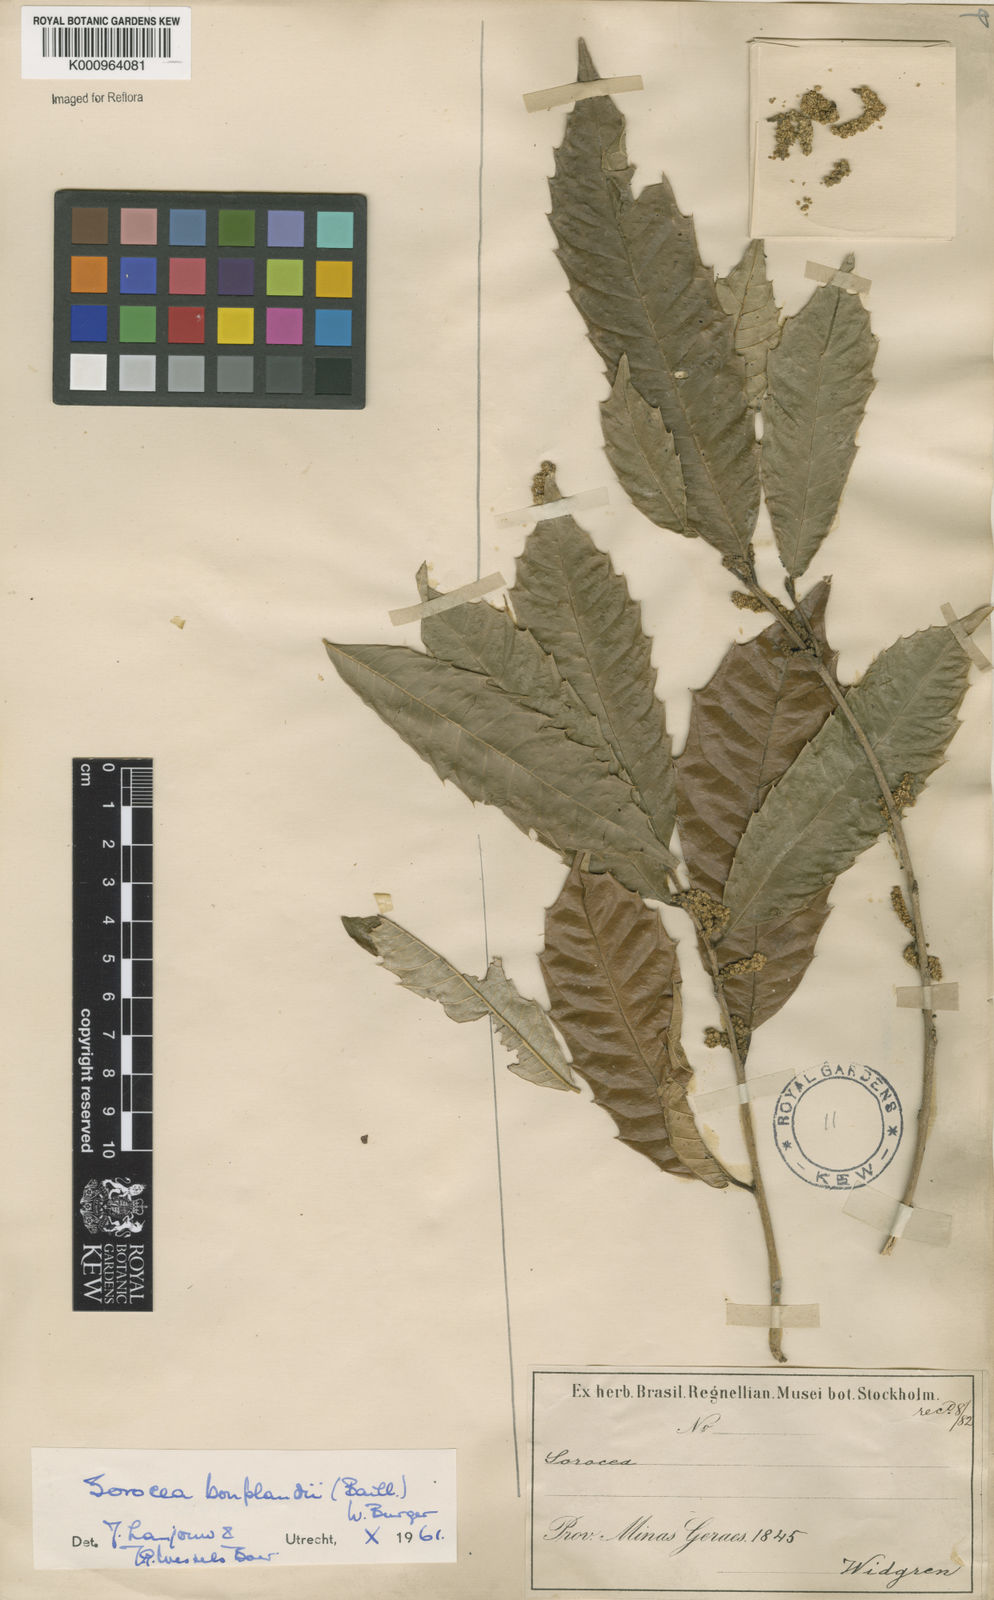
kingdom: Plantae
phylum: Tracheophyta
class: Magnoliopsida
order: Rosales
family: Moraceae
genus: Sorocea
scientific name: Sorocea
